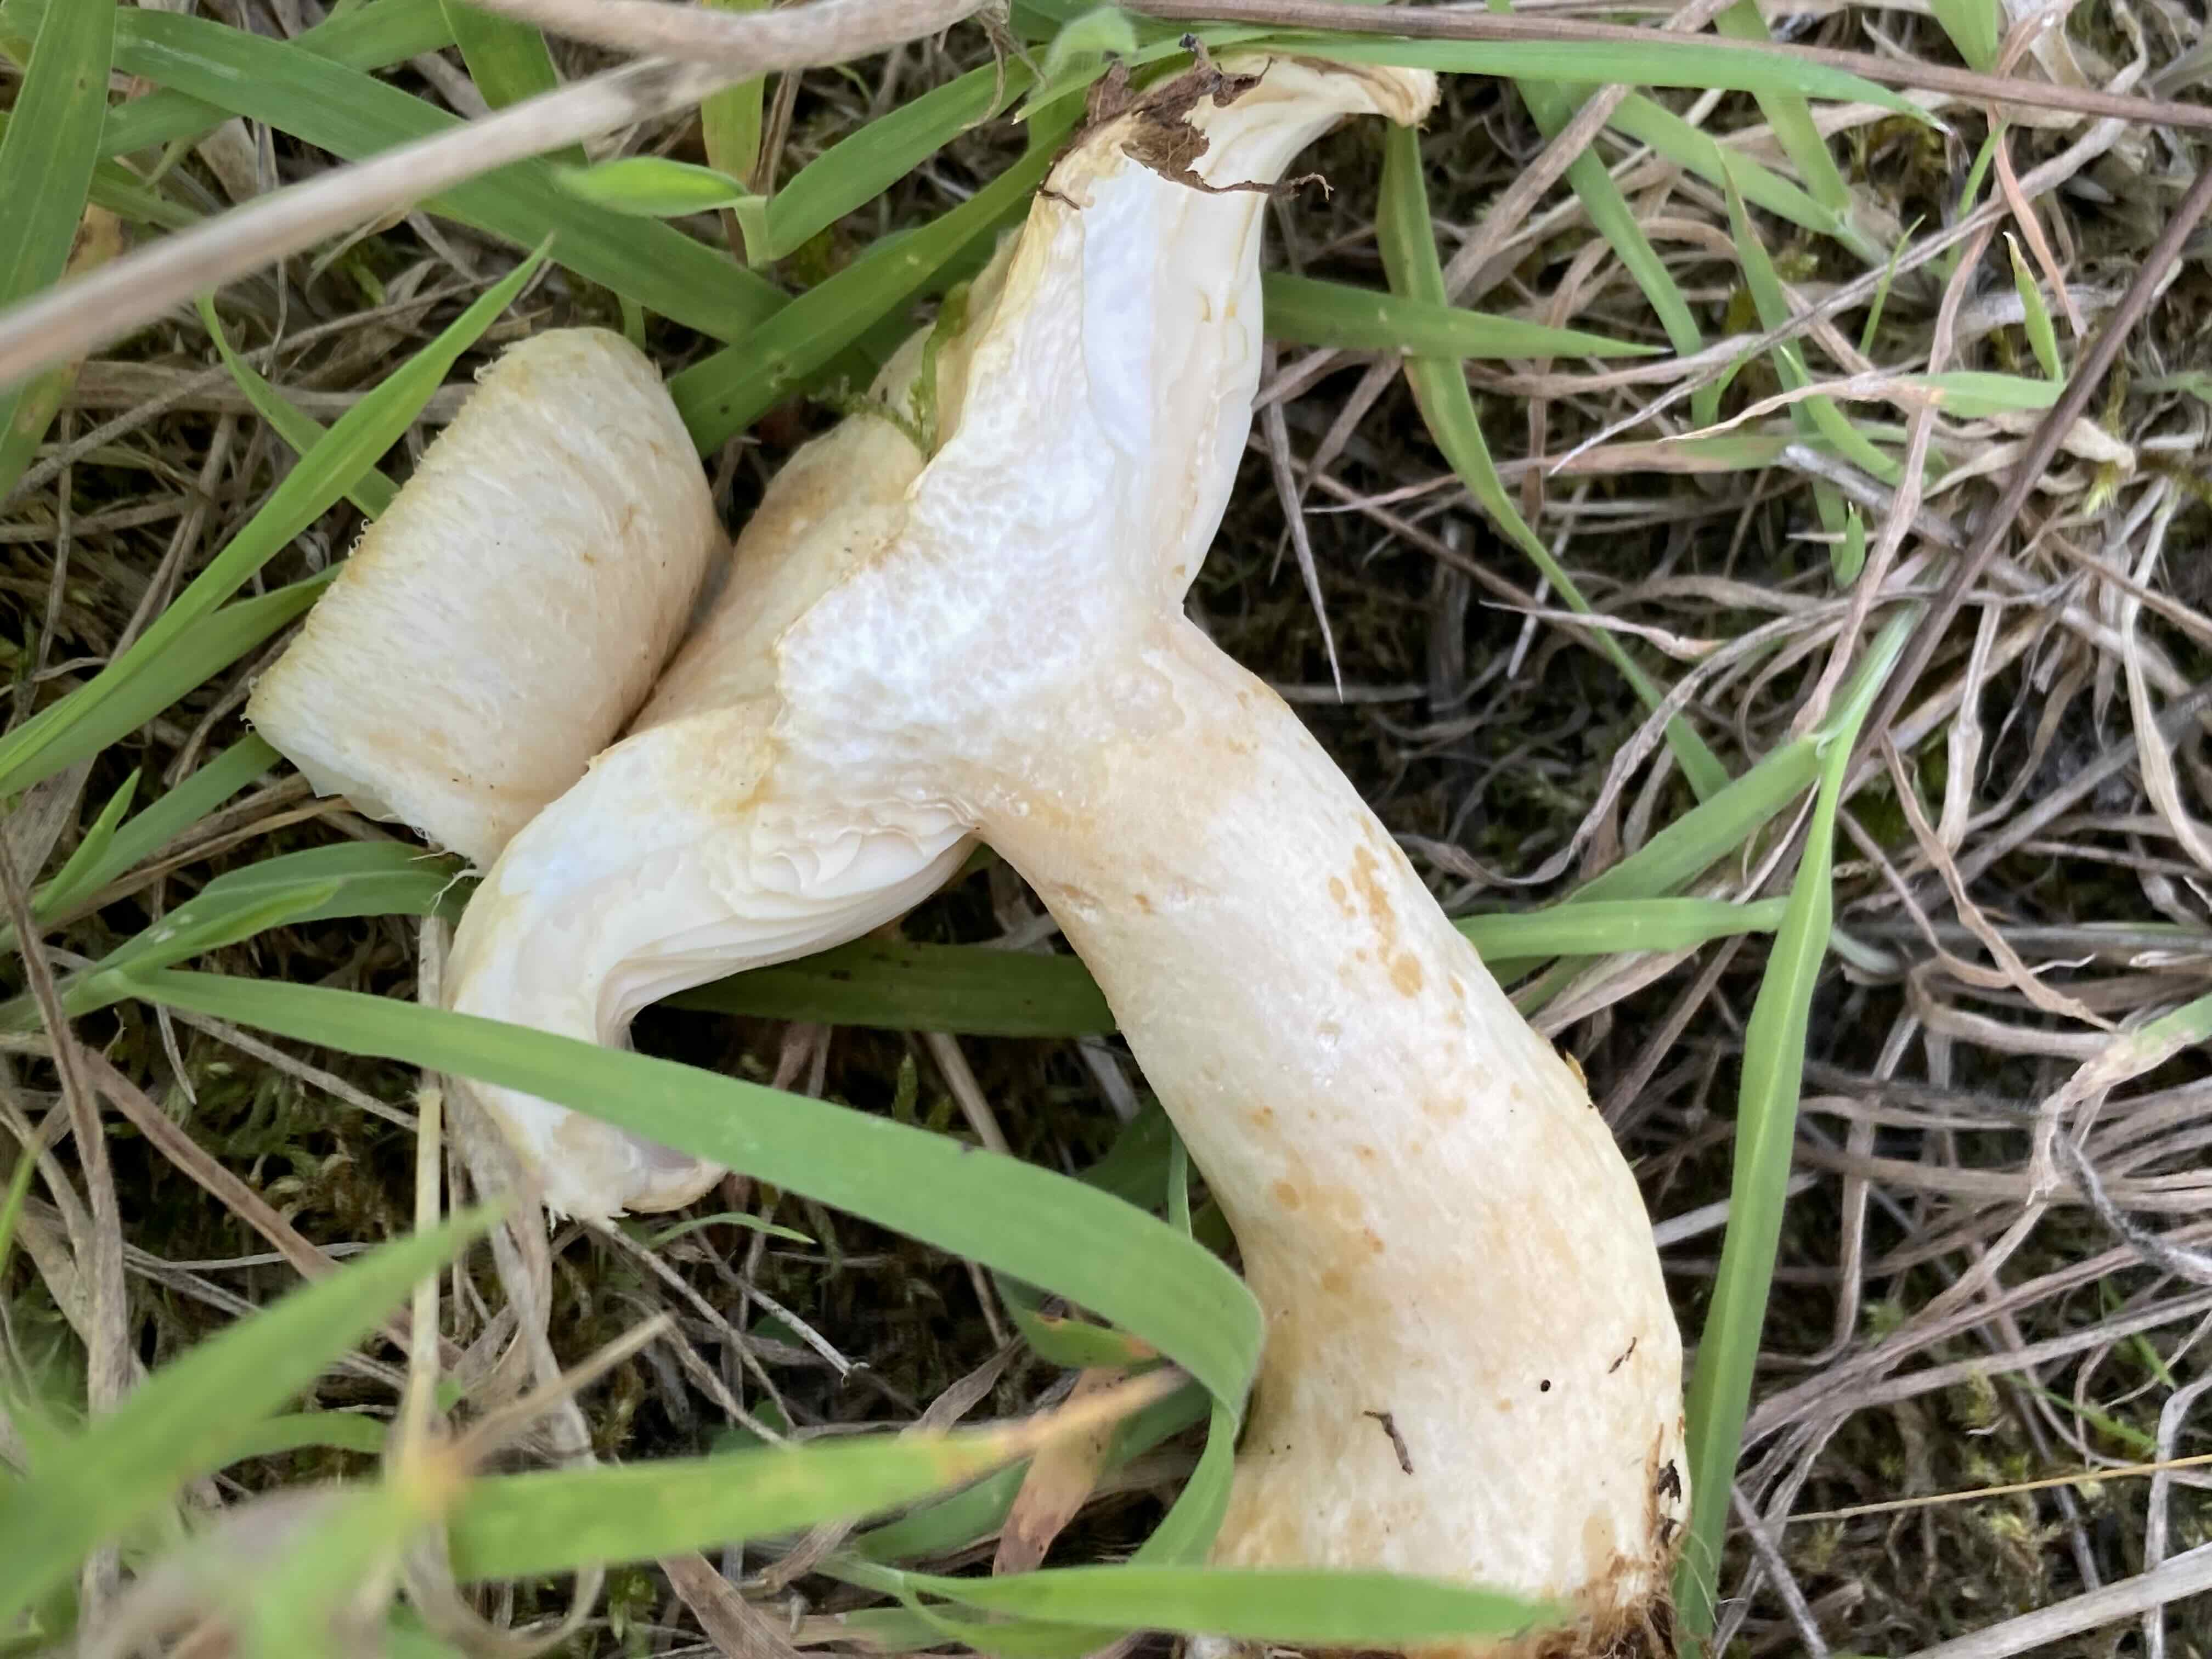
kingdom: Fungi
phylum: Basidiomycota
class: Agaricomycetes
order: Russulales
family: Russulaceae
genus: Lactarius
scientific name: Lactarius scoticus
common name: tørve-mælkehat
